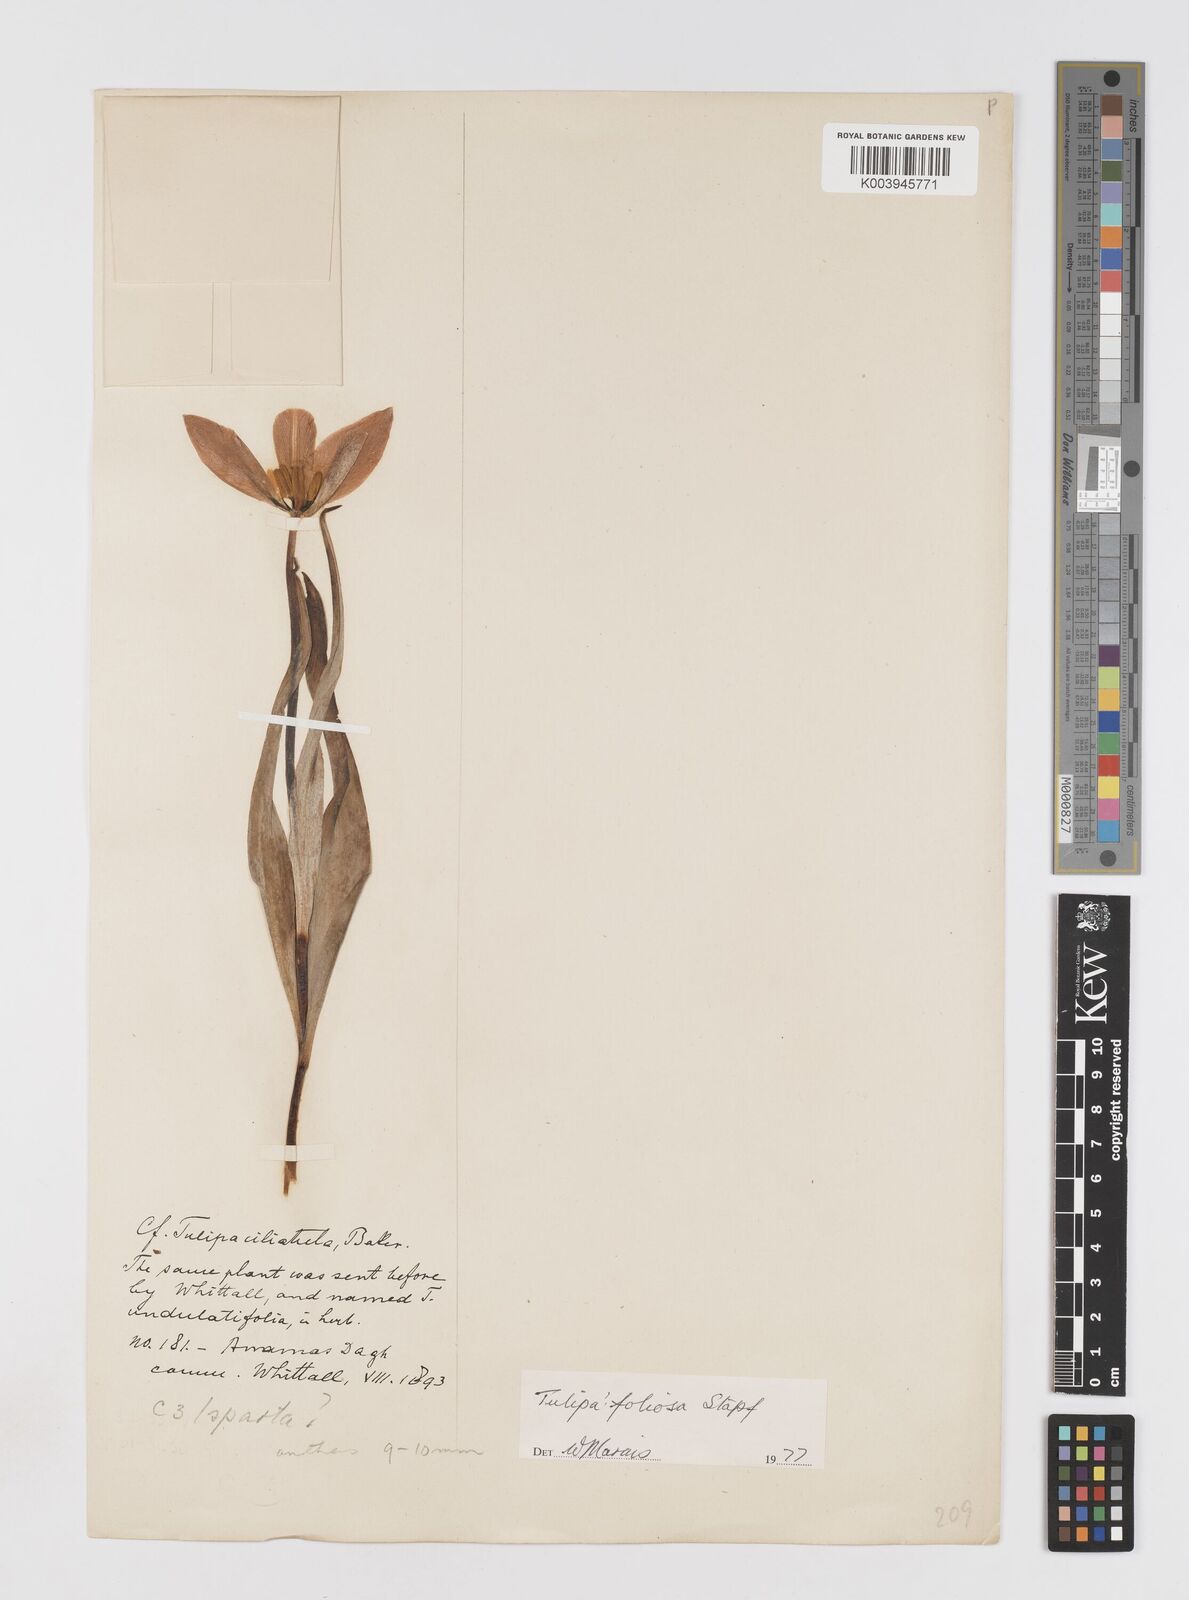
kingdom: Plantae
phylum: Tracheophyta
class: Liliopsida
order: Liliales
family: Liliaceae
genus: Tulipa
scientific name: Tulipa foliosa
